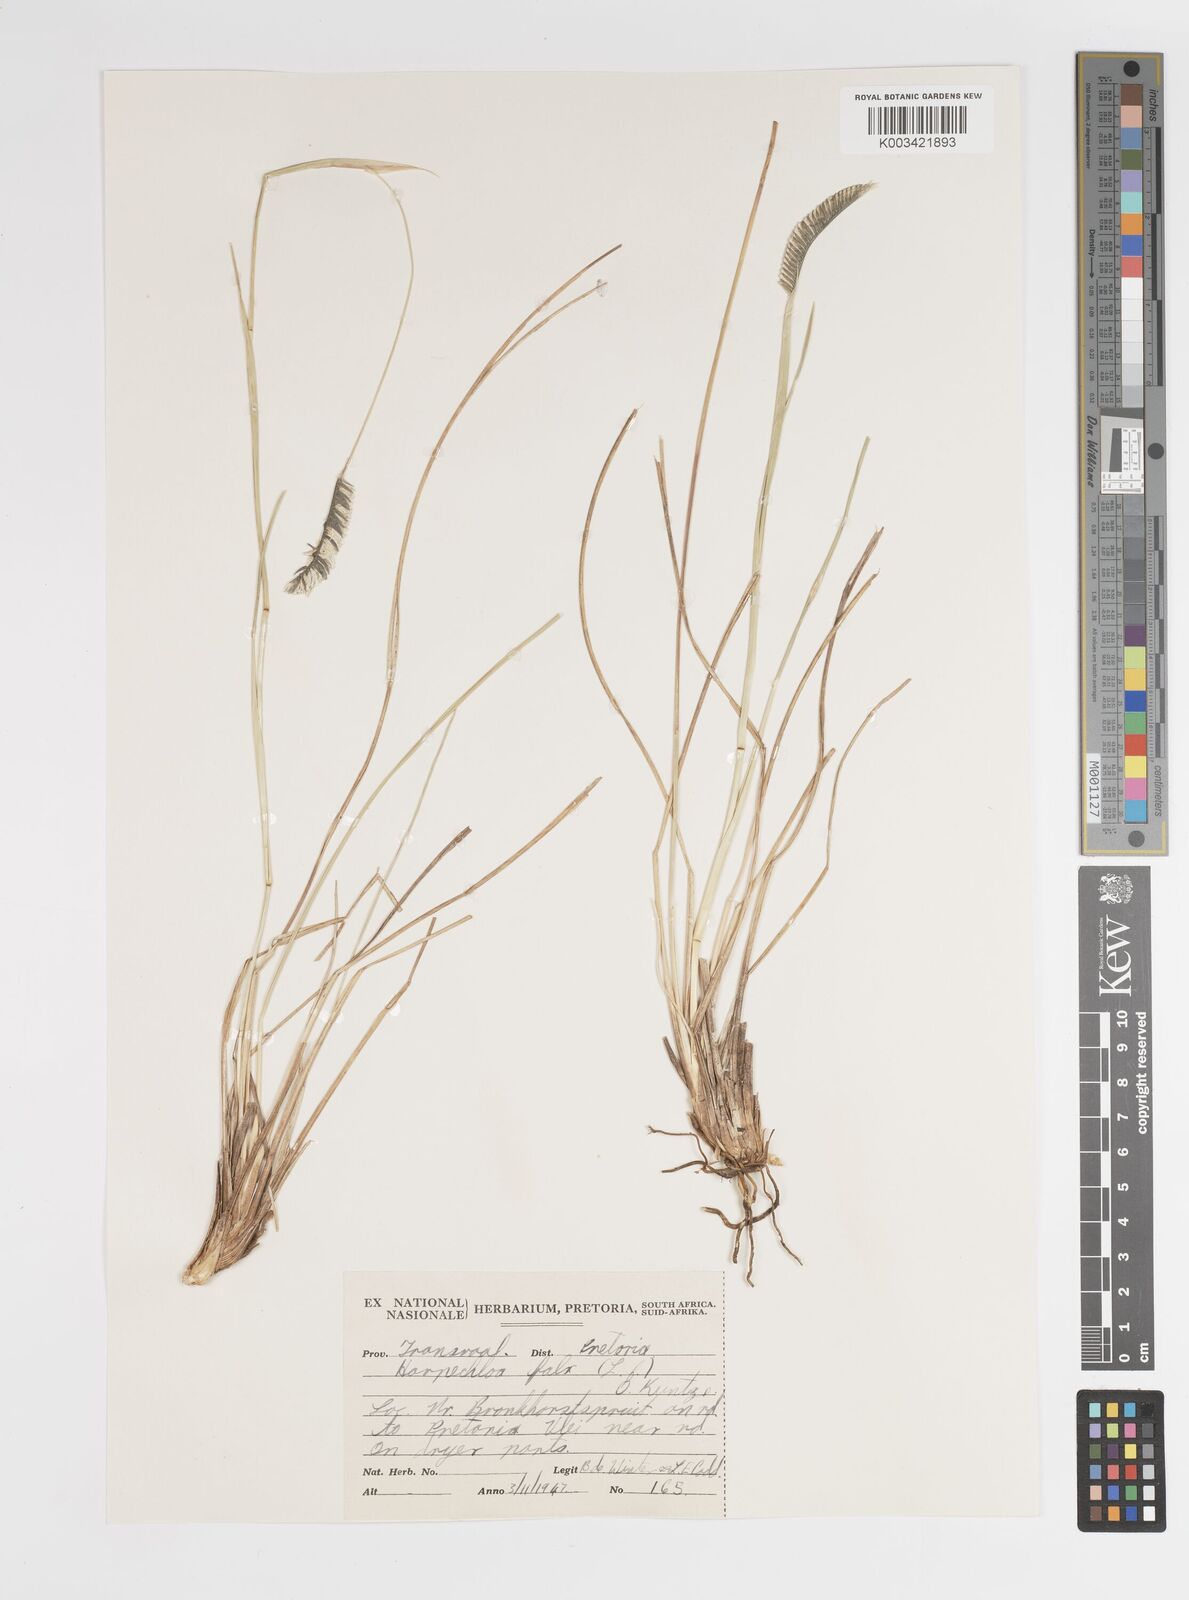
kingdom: Plantae
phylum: Tracheophyta
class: Liliopsida
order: Poales
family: Poaceae
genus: Harpochloa
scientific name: Harpochloa falx
